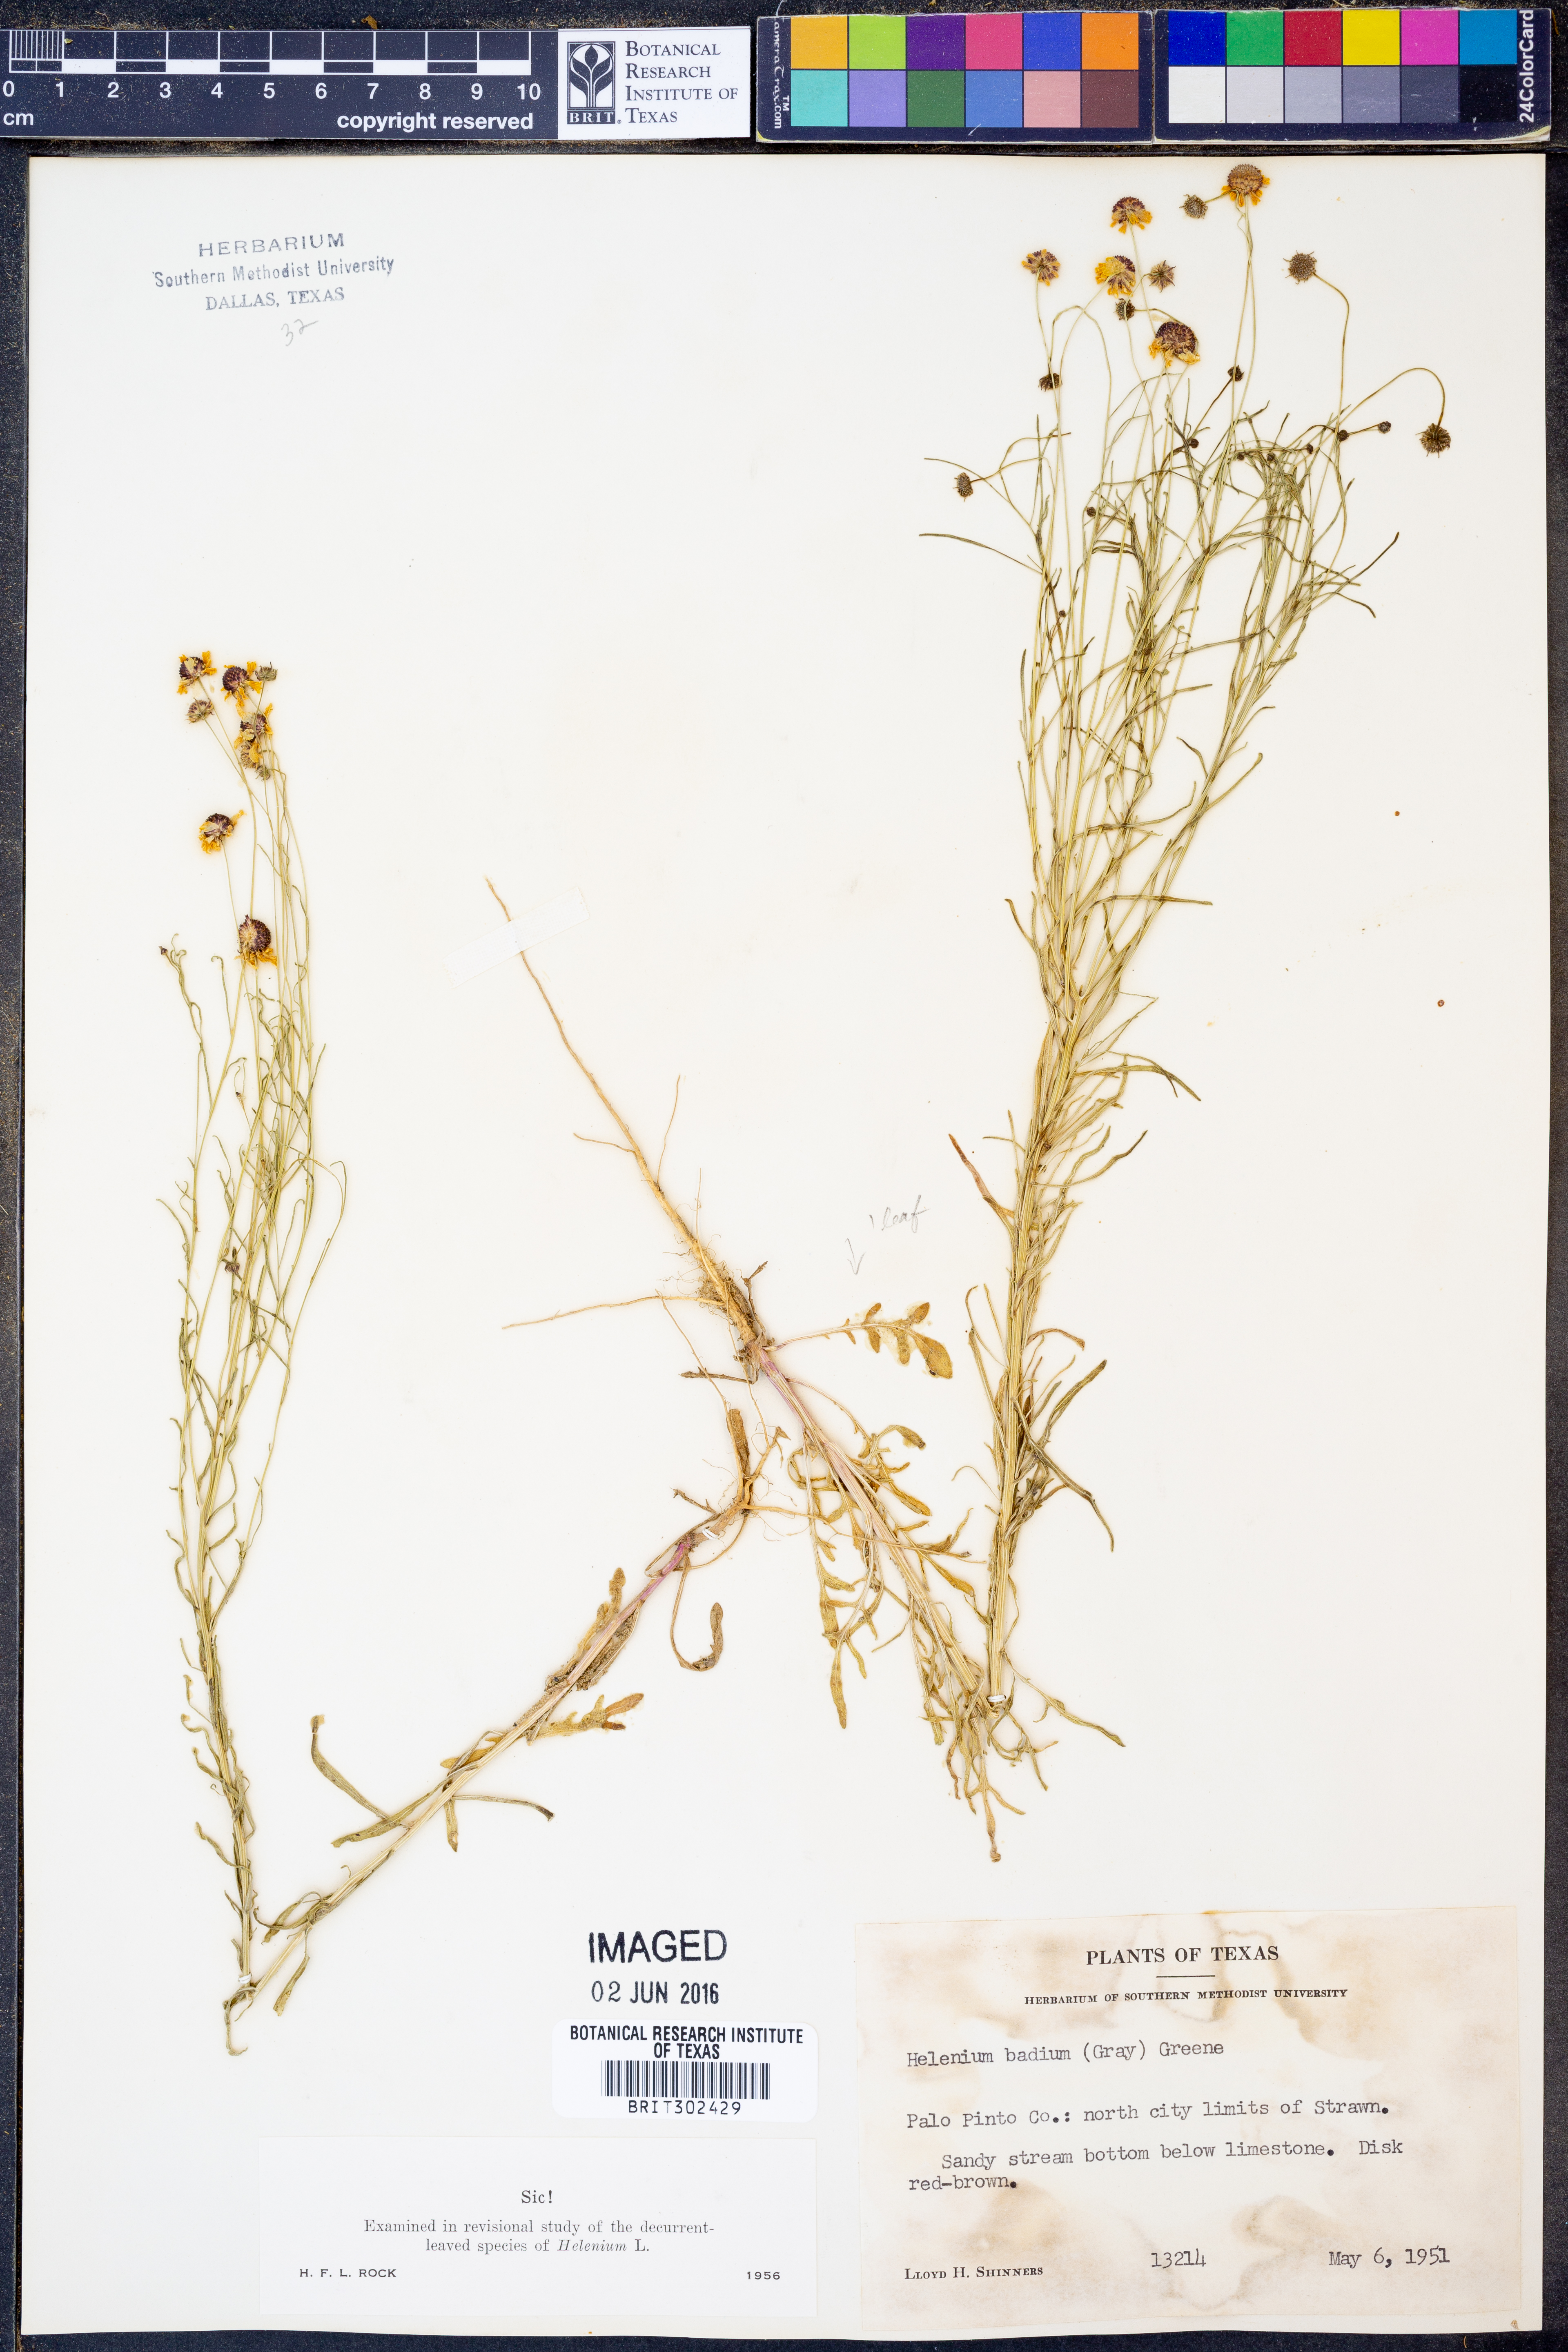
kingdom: Plantae
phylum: Tracheophyta
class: Magnoliopsida
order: Asterales
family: Asteraceae
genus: Helenium
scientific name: Helenium amarum
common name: Bitter sneezeweed
